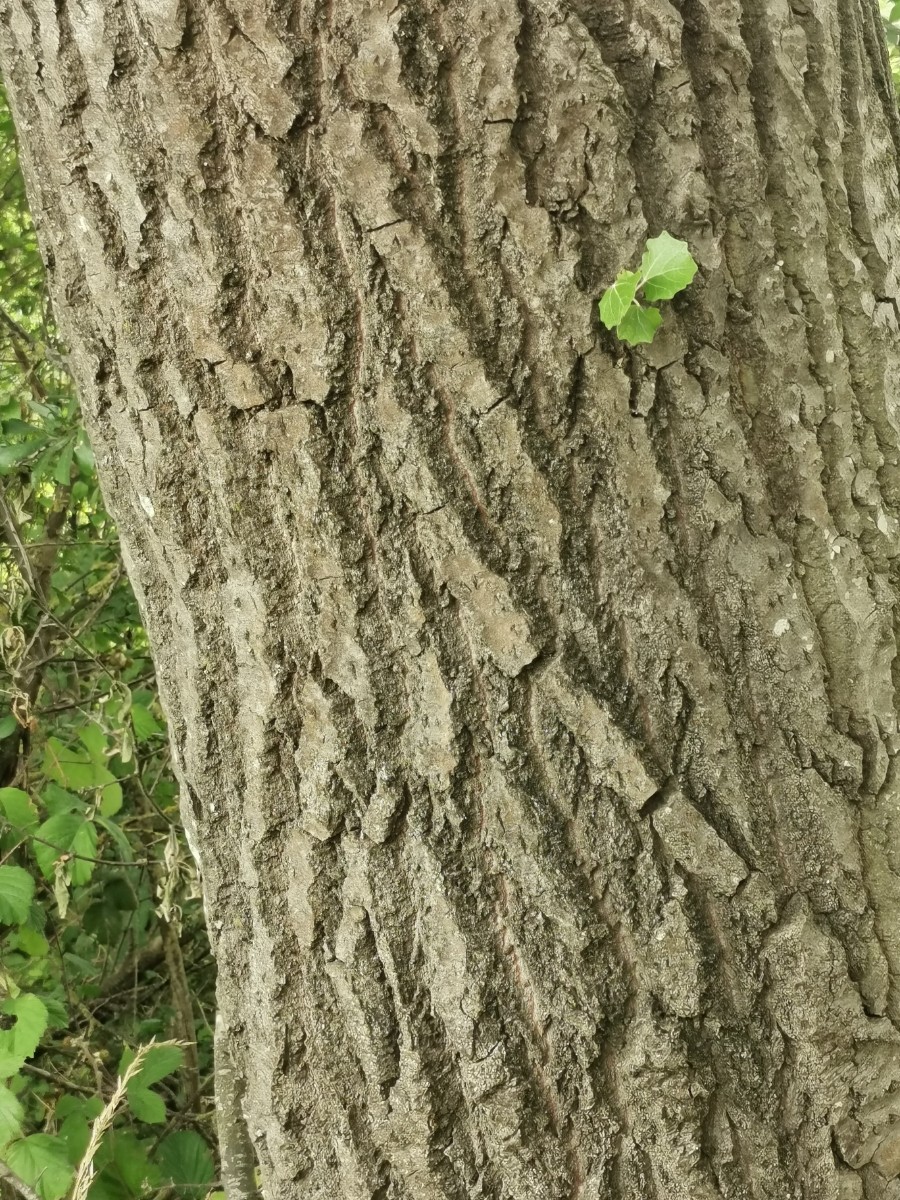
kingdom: Fungi
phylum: Basidiomycota
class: Agaricomycetes
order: Boletales
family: Boletaceae
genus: Leccinum
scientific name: Leccinum duriusculum
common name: poppel-skælrørhat
